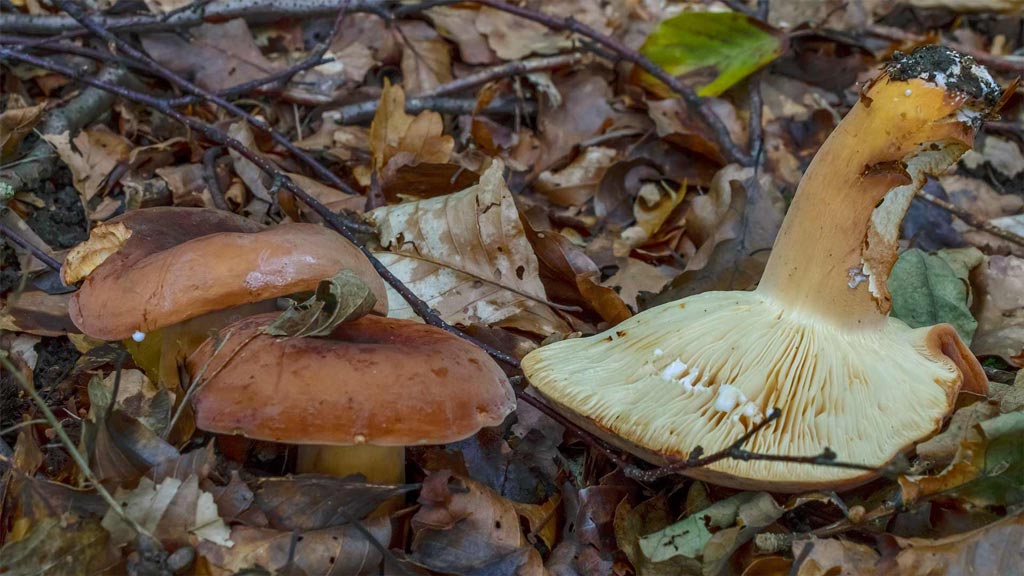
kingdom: Fungi
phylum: Basidiomycota
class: Agaricomycetes
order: Russulales
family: Russulaceae
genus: Lactifluus
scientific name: Lactifluus volemus
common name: spiselig mælkehat
